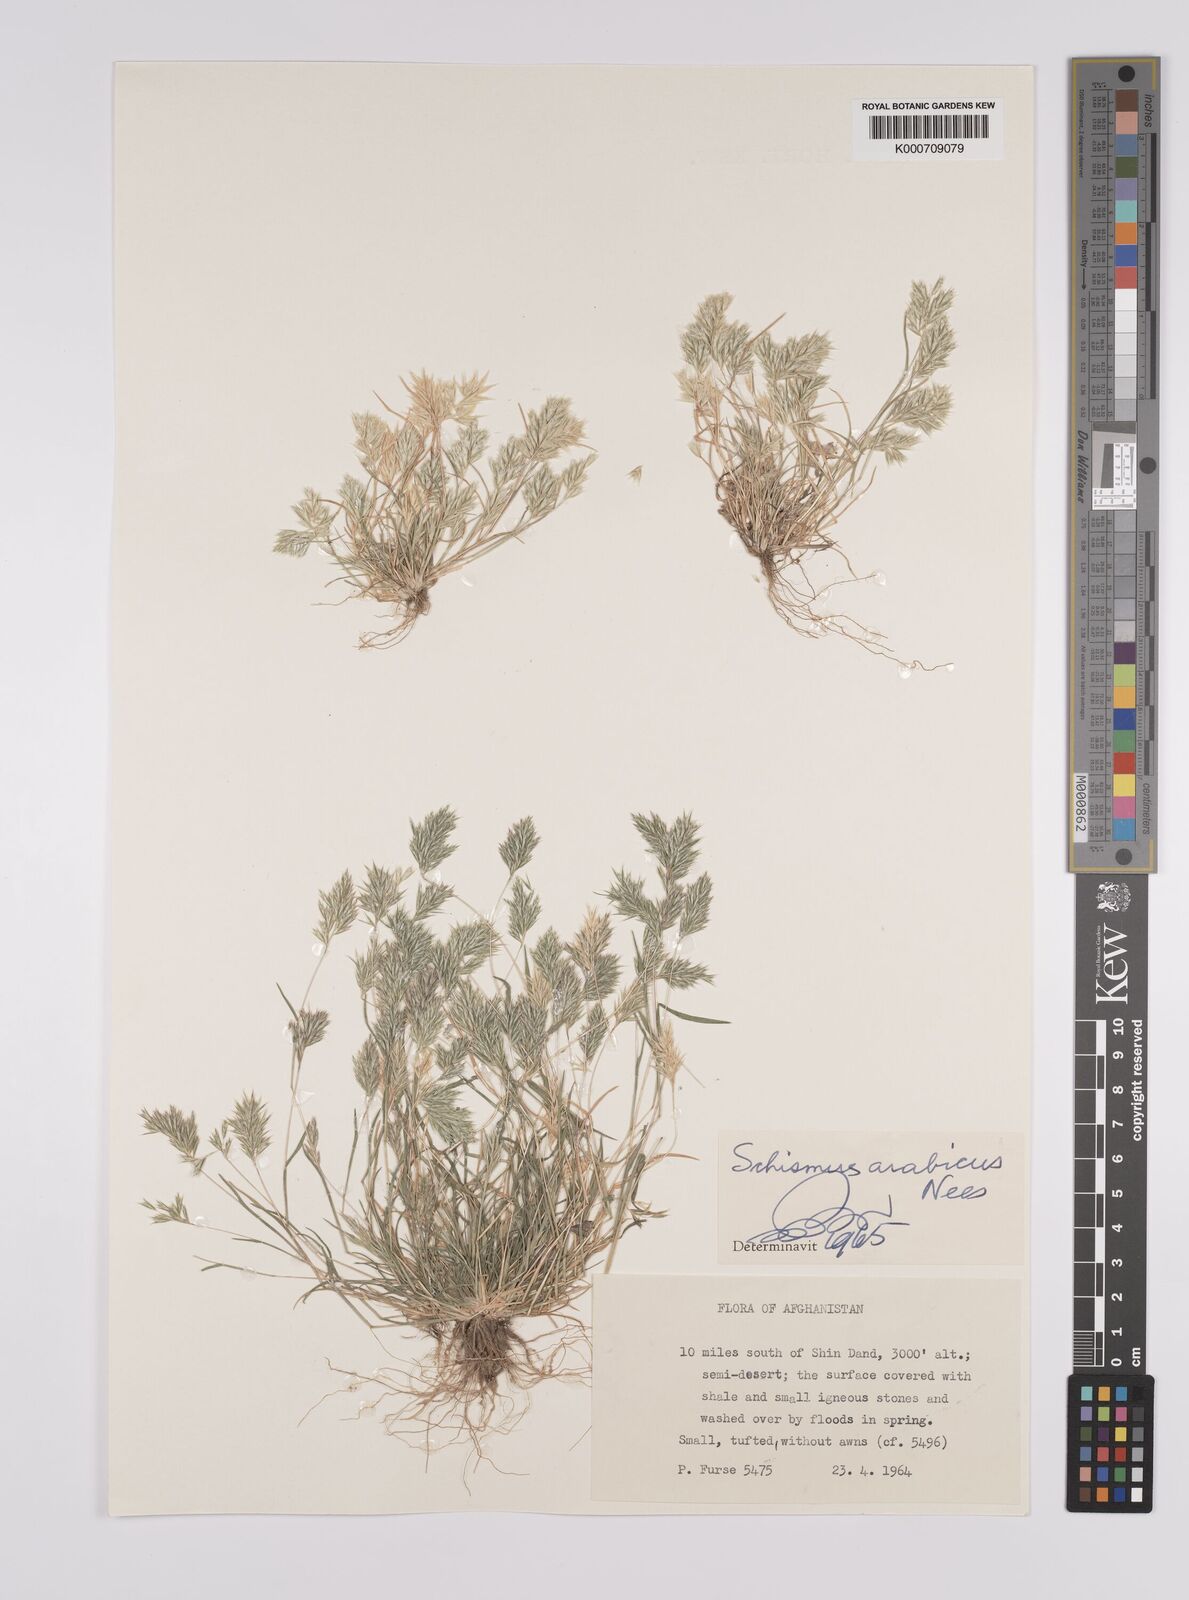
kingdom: Plantae
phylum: Tracheophyta
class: Liliopsida
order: Poales
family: Poaceae
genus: Schismus
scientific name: Schismus arabicus
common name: Arabian schismus
